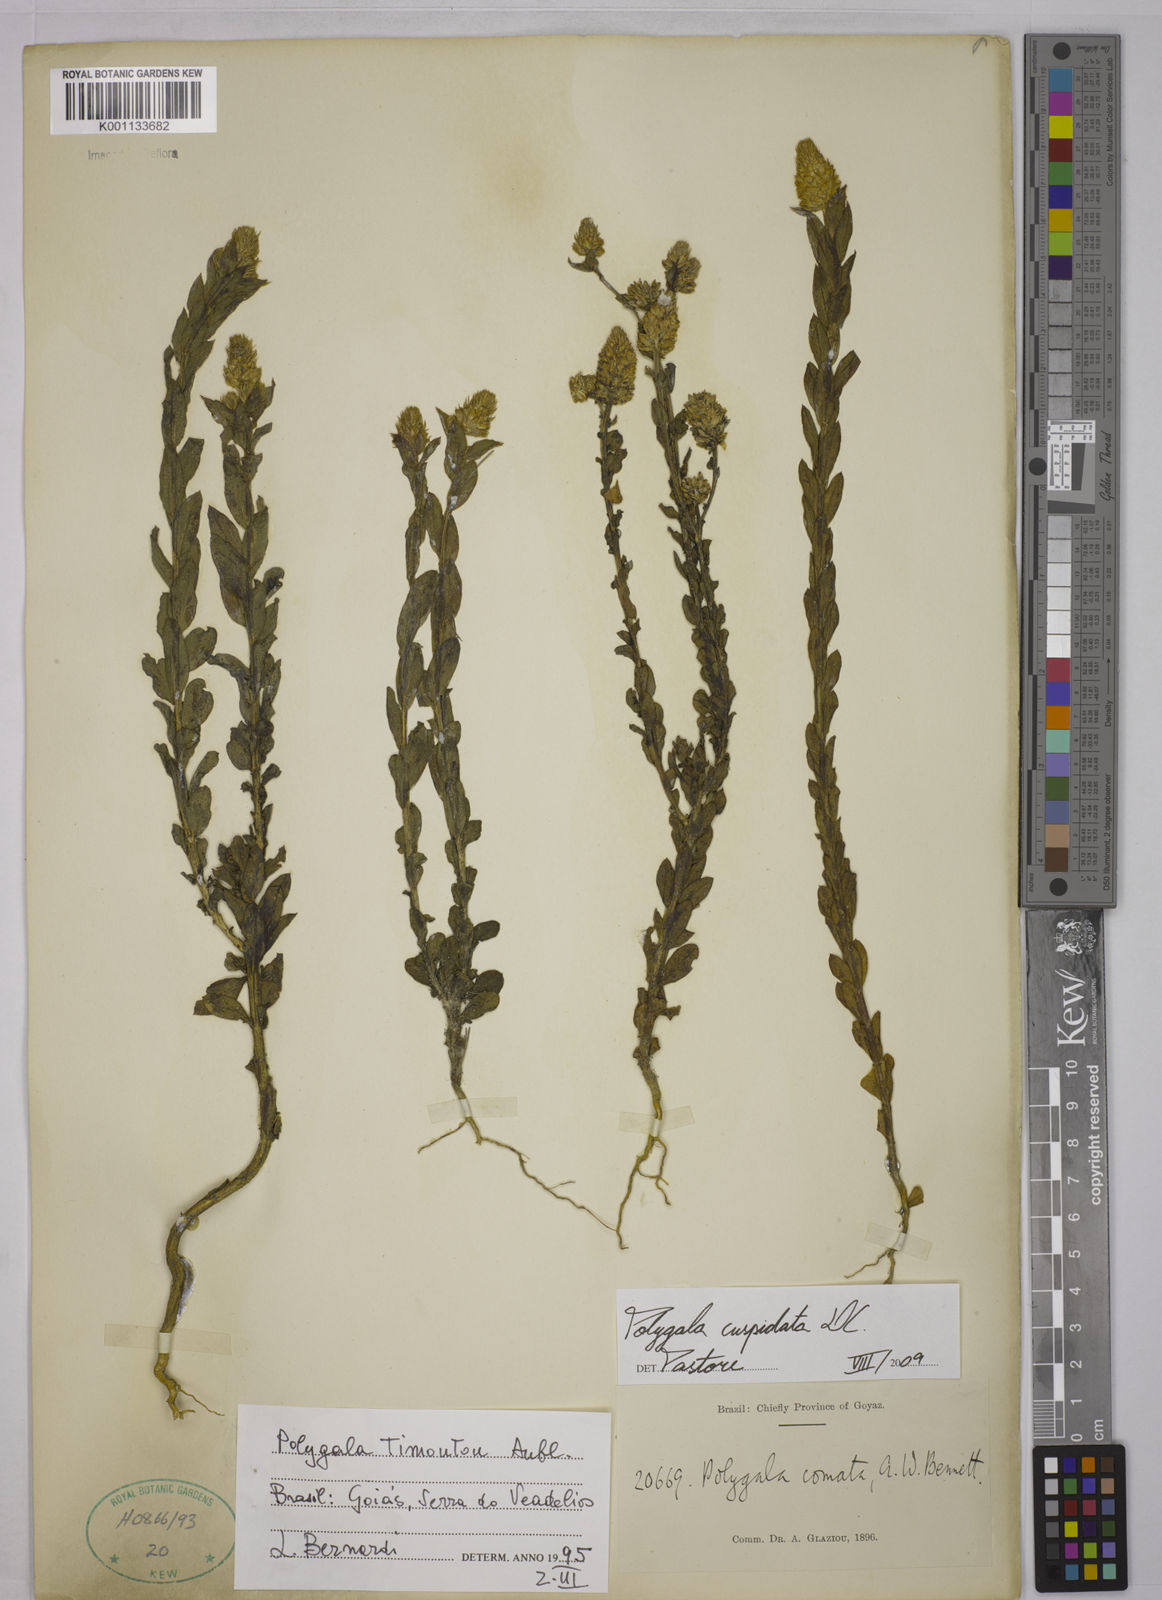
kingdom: Plantae
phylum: Tracheophyta
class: Magnoliopsida
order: Fabales
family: Polygalaceae
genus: Polygala
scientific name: Polygala cuspidata
